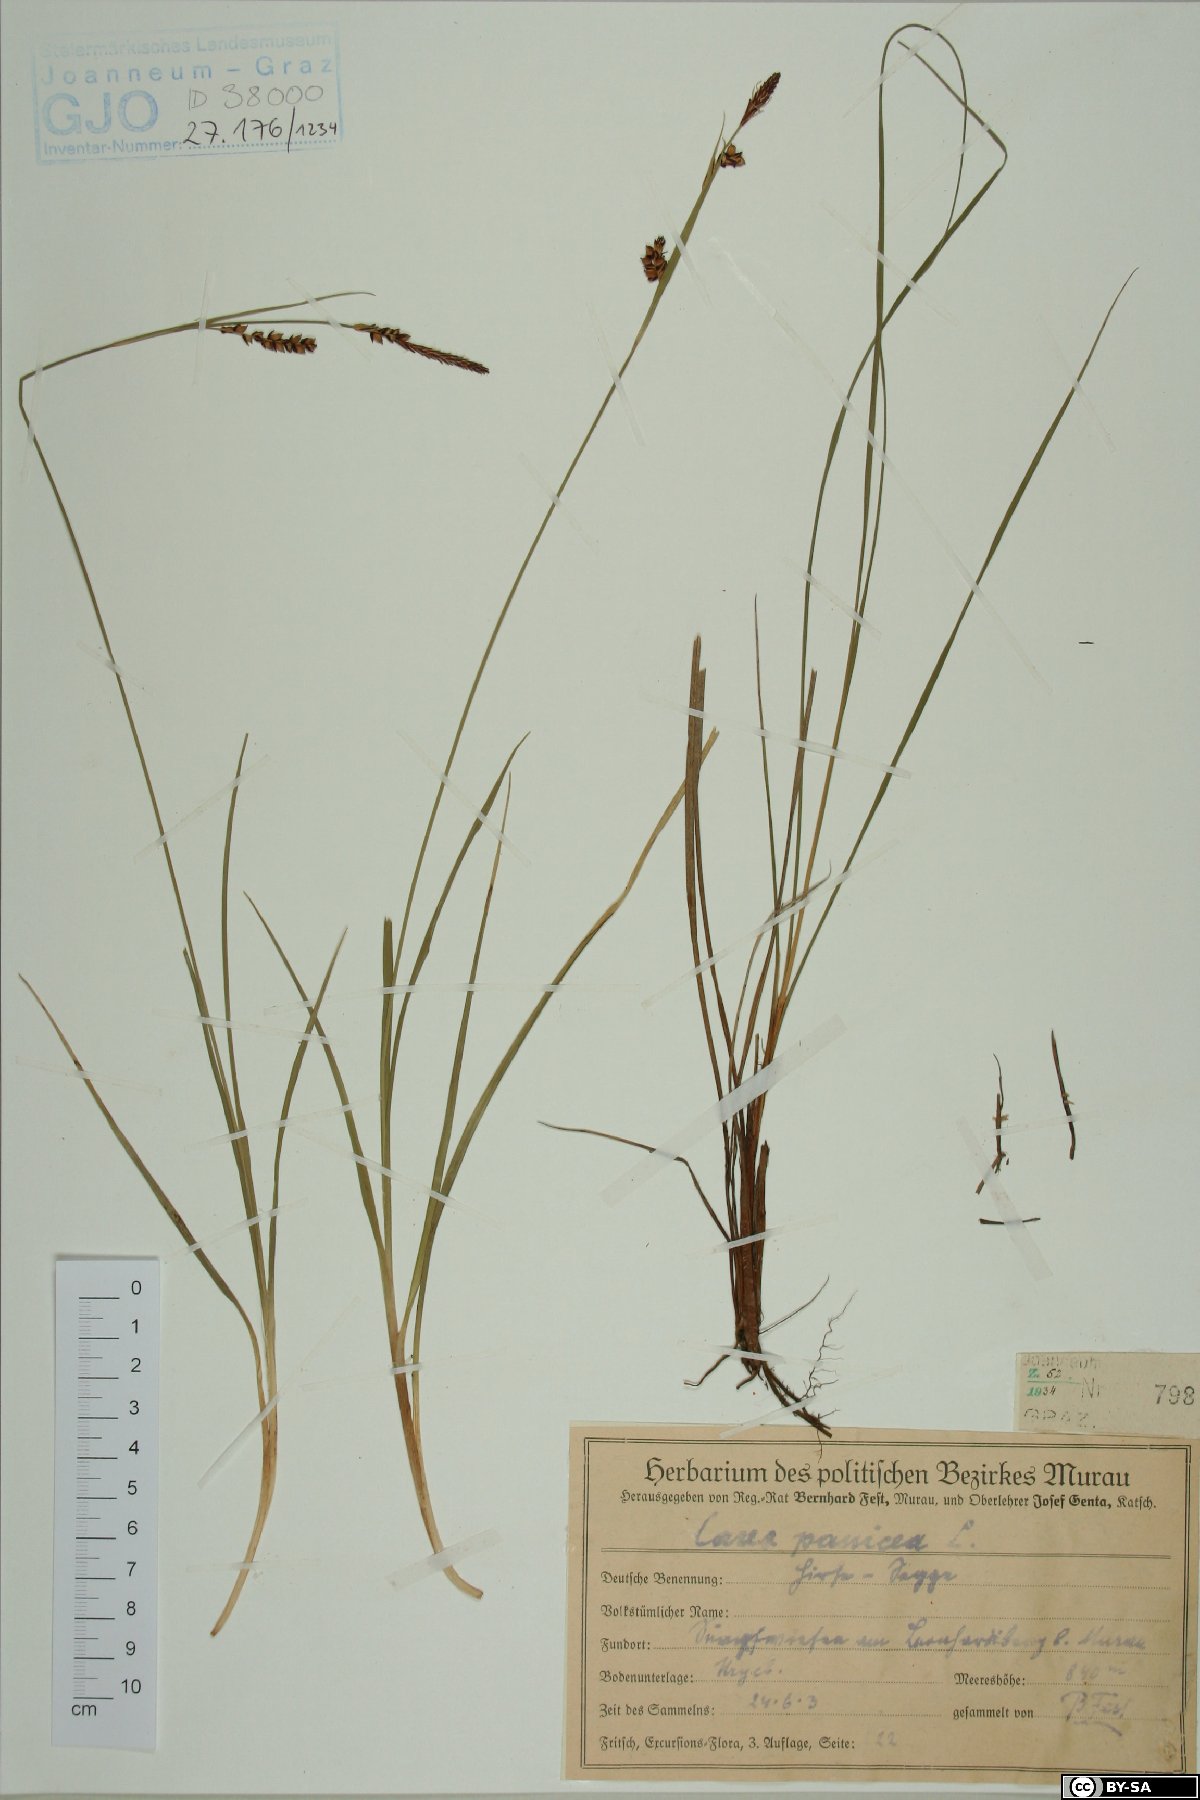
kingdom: Plantae
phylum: Tracheophyta
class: Liliopsida
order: Poales
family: Cyperaceae
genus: Carex
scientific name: Carex panicea
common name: Carnation sedge
